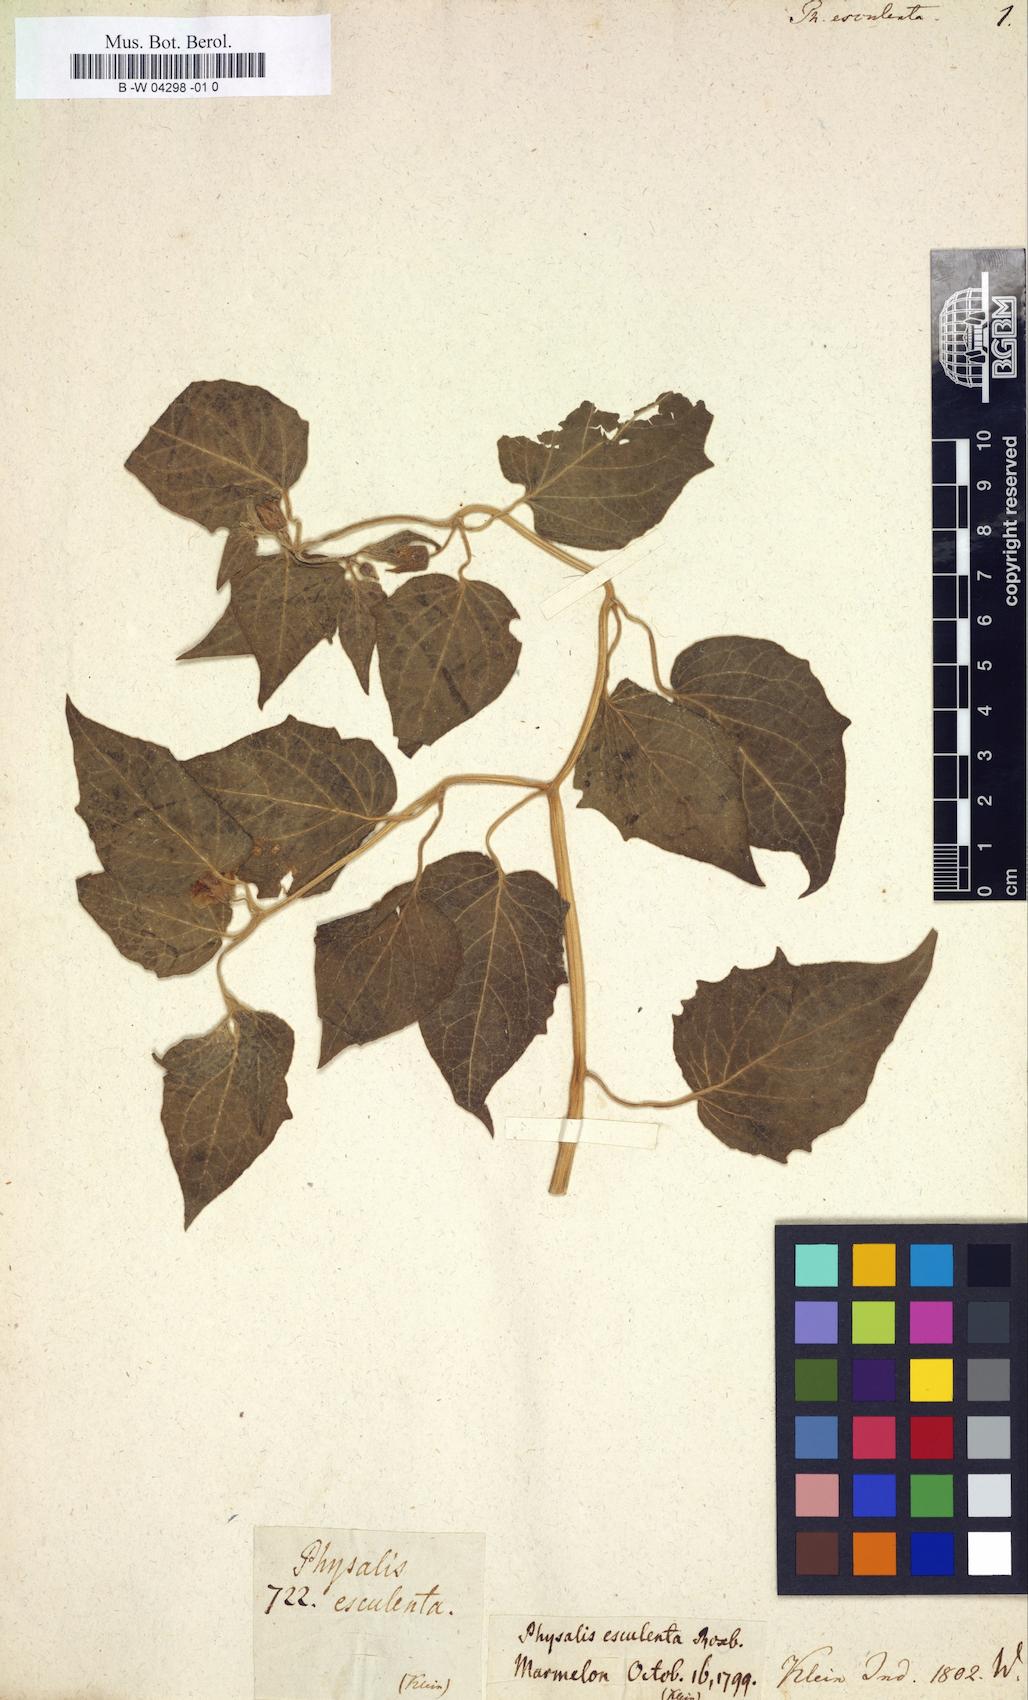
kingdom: Plantae
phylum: Tracheophyta
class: Magnoliopsida
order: Solanales
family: Solanaceae
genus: Physalis
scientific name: Physalis peruviana
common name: Cape-gooseberry
